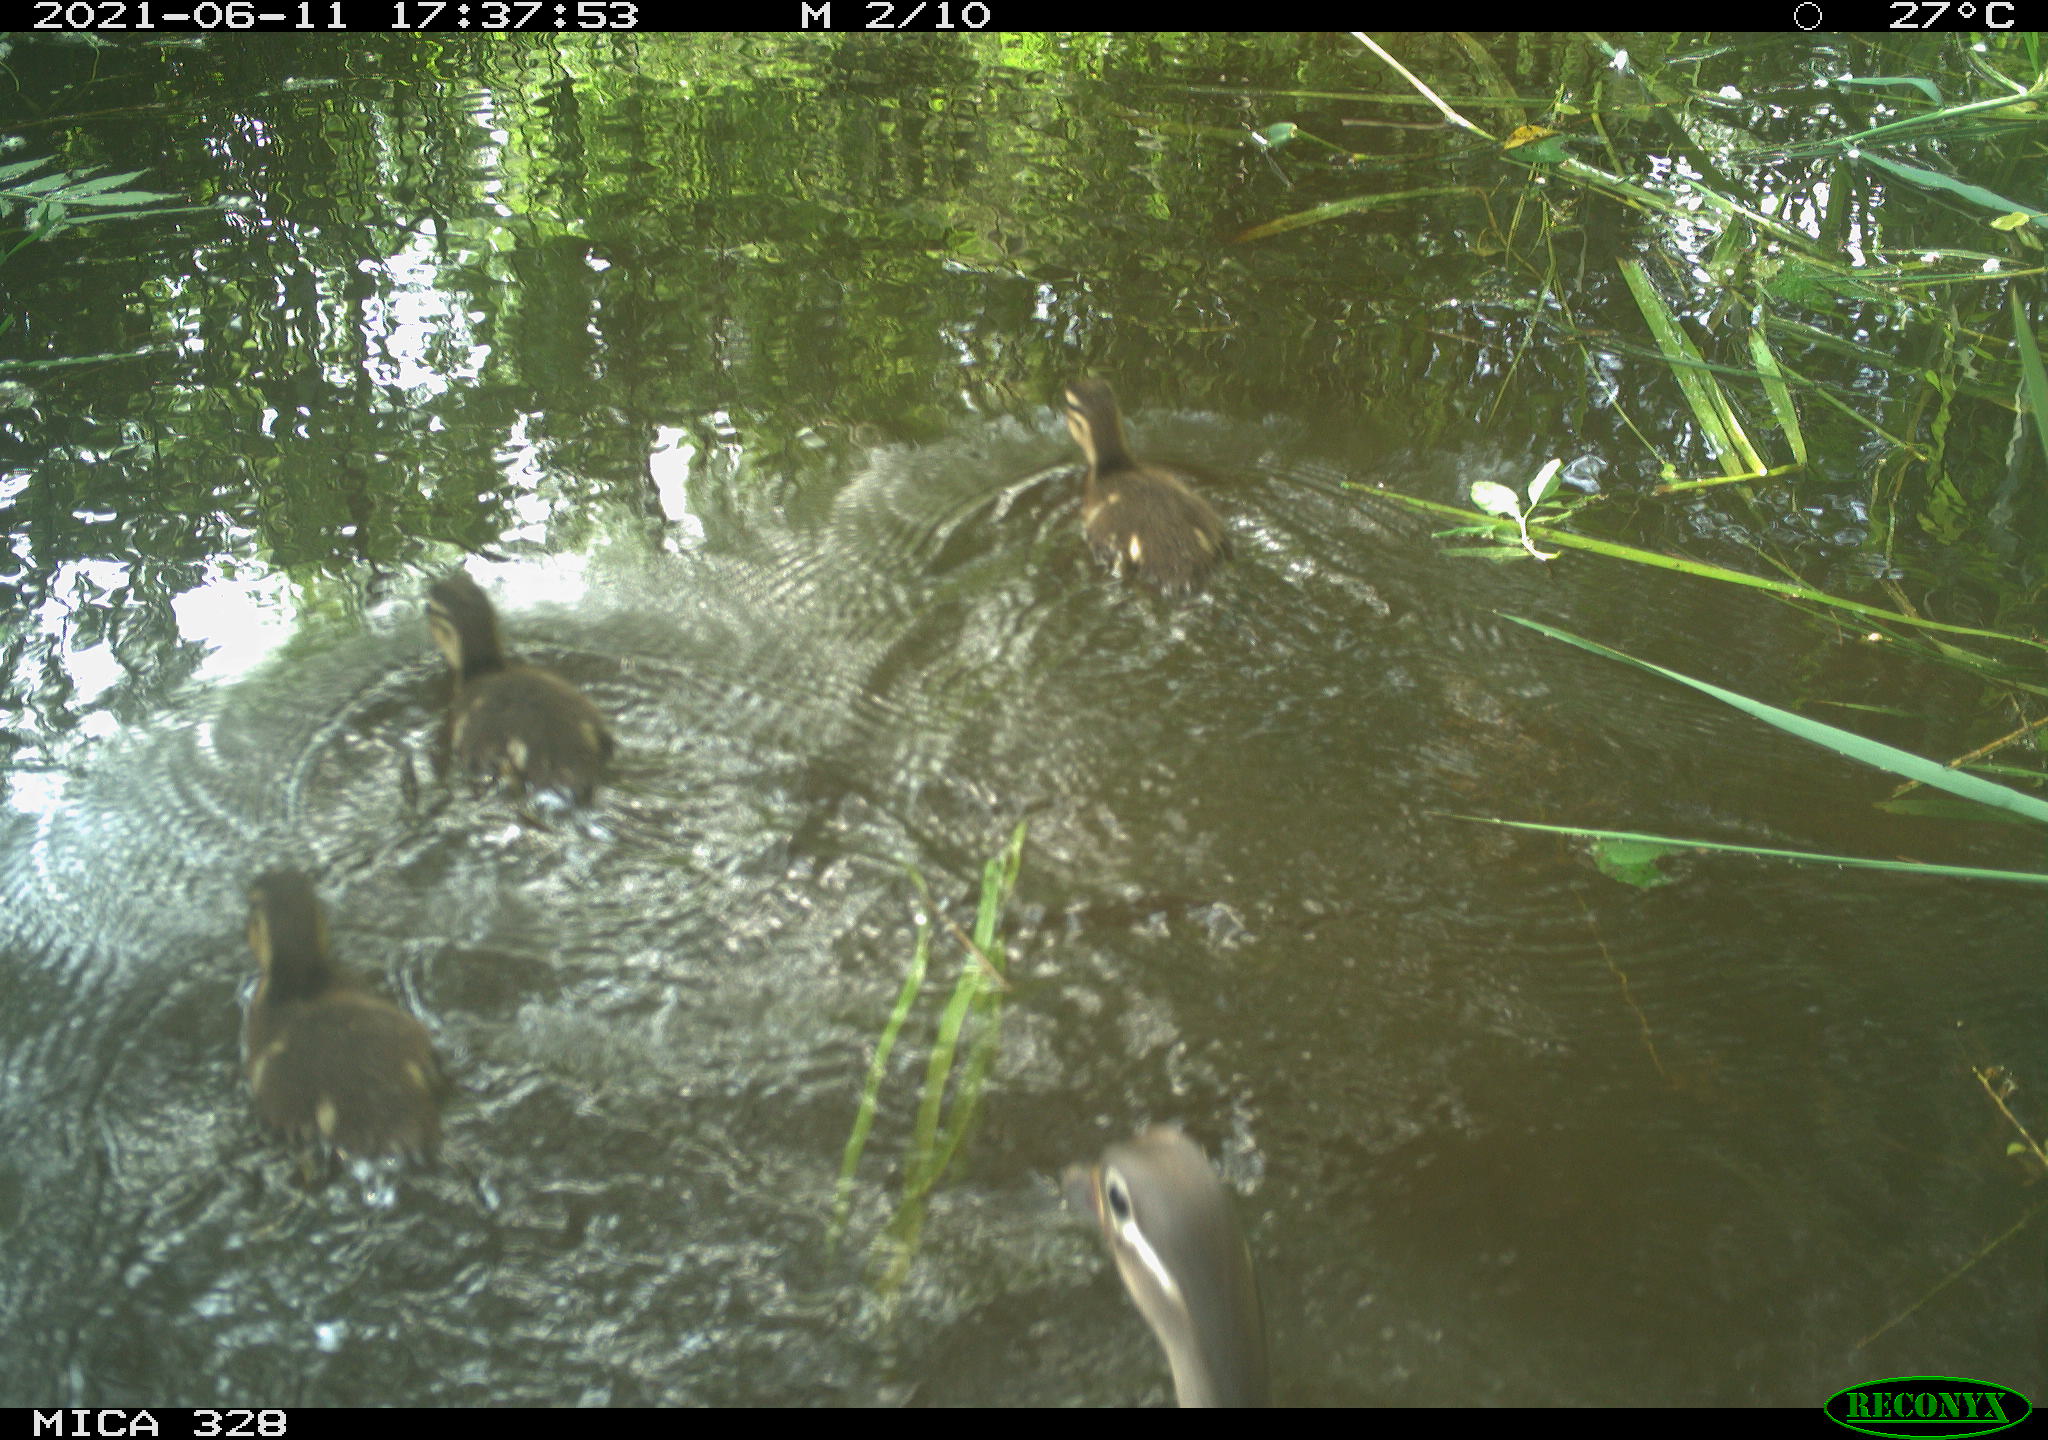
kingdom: Animalia
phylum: Chordata
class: Aves
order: Anseriformes
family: Anatidae
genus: Aix
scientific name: Aix galericulata
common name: Mandarin duck
